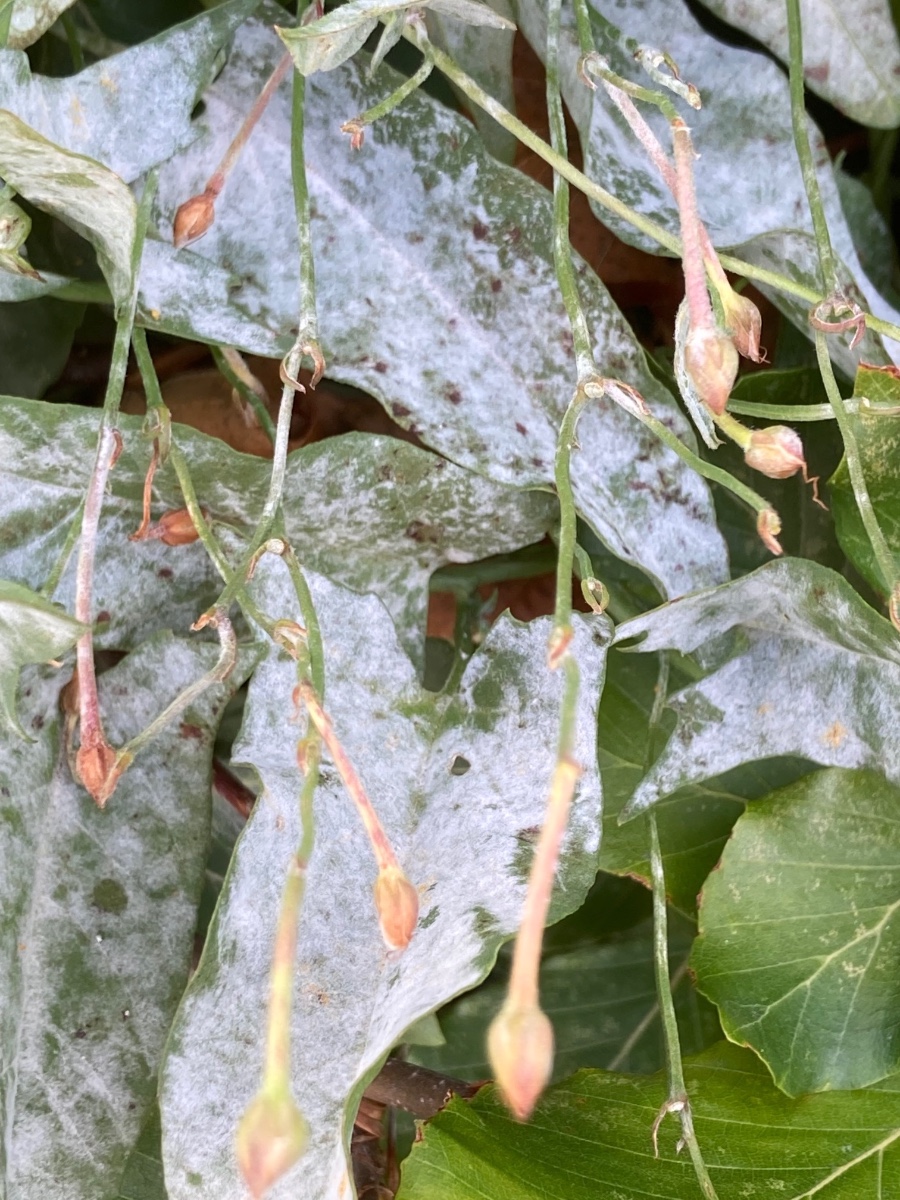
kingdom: Fungi
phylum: Ascomycota
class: Leotiomycetes
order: Helotiales
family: Erysiphaceae
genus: Erysiphe
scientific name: Erysiphe convolvuli
